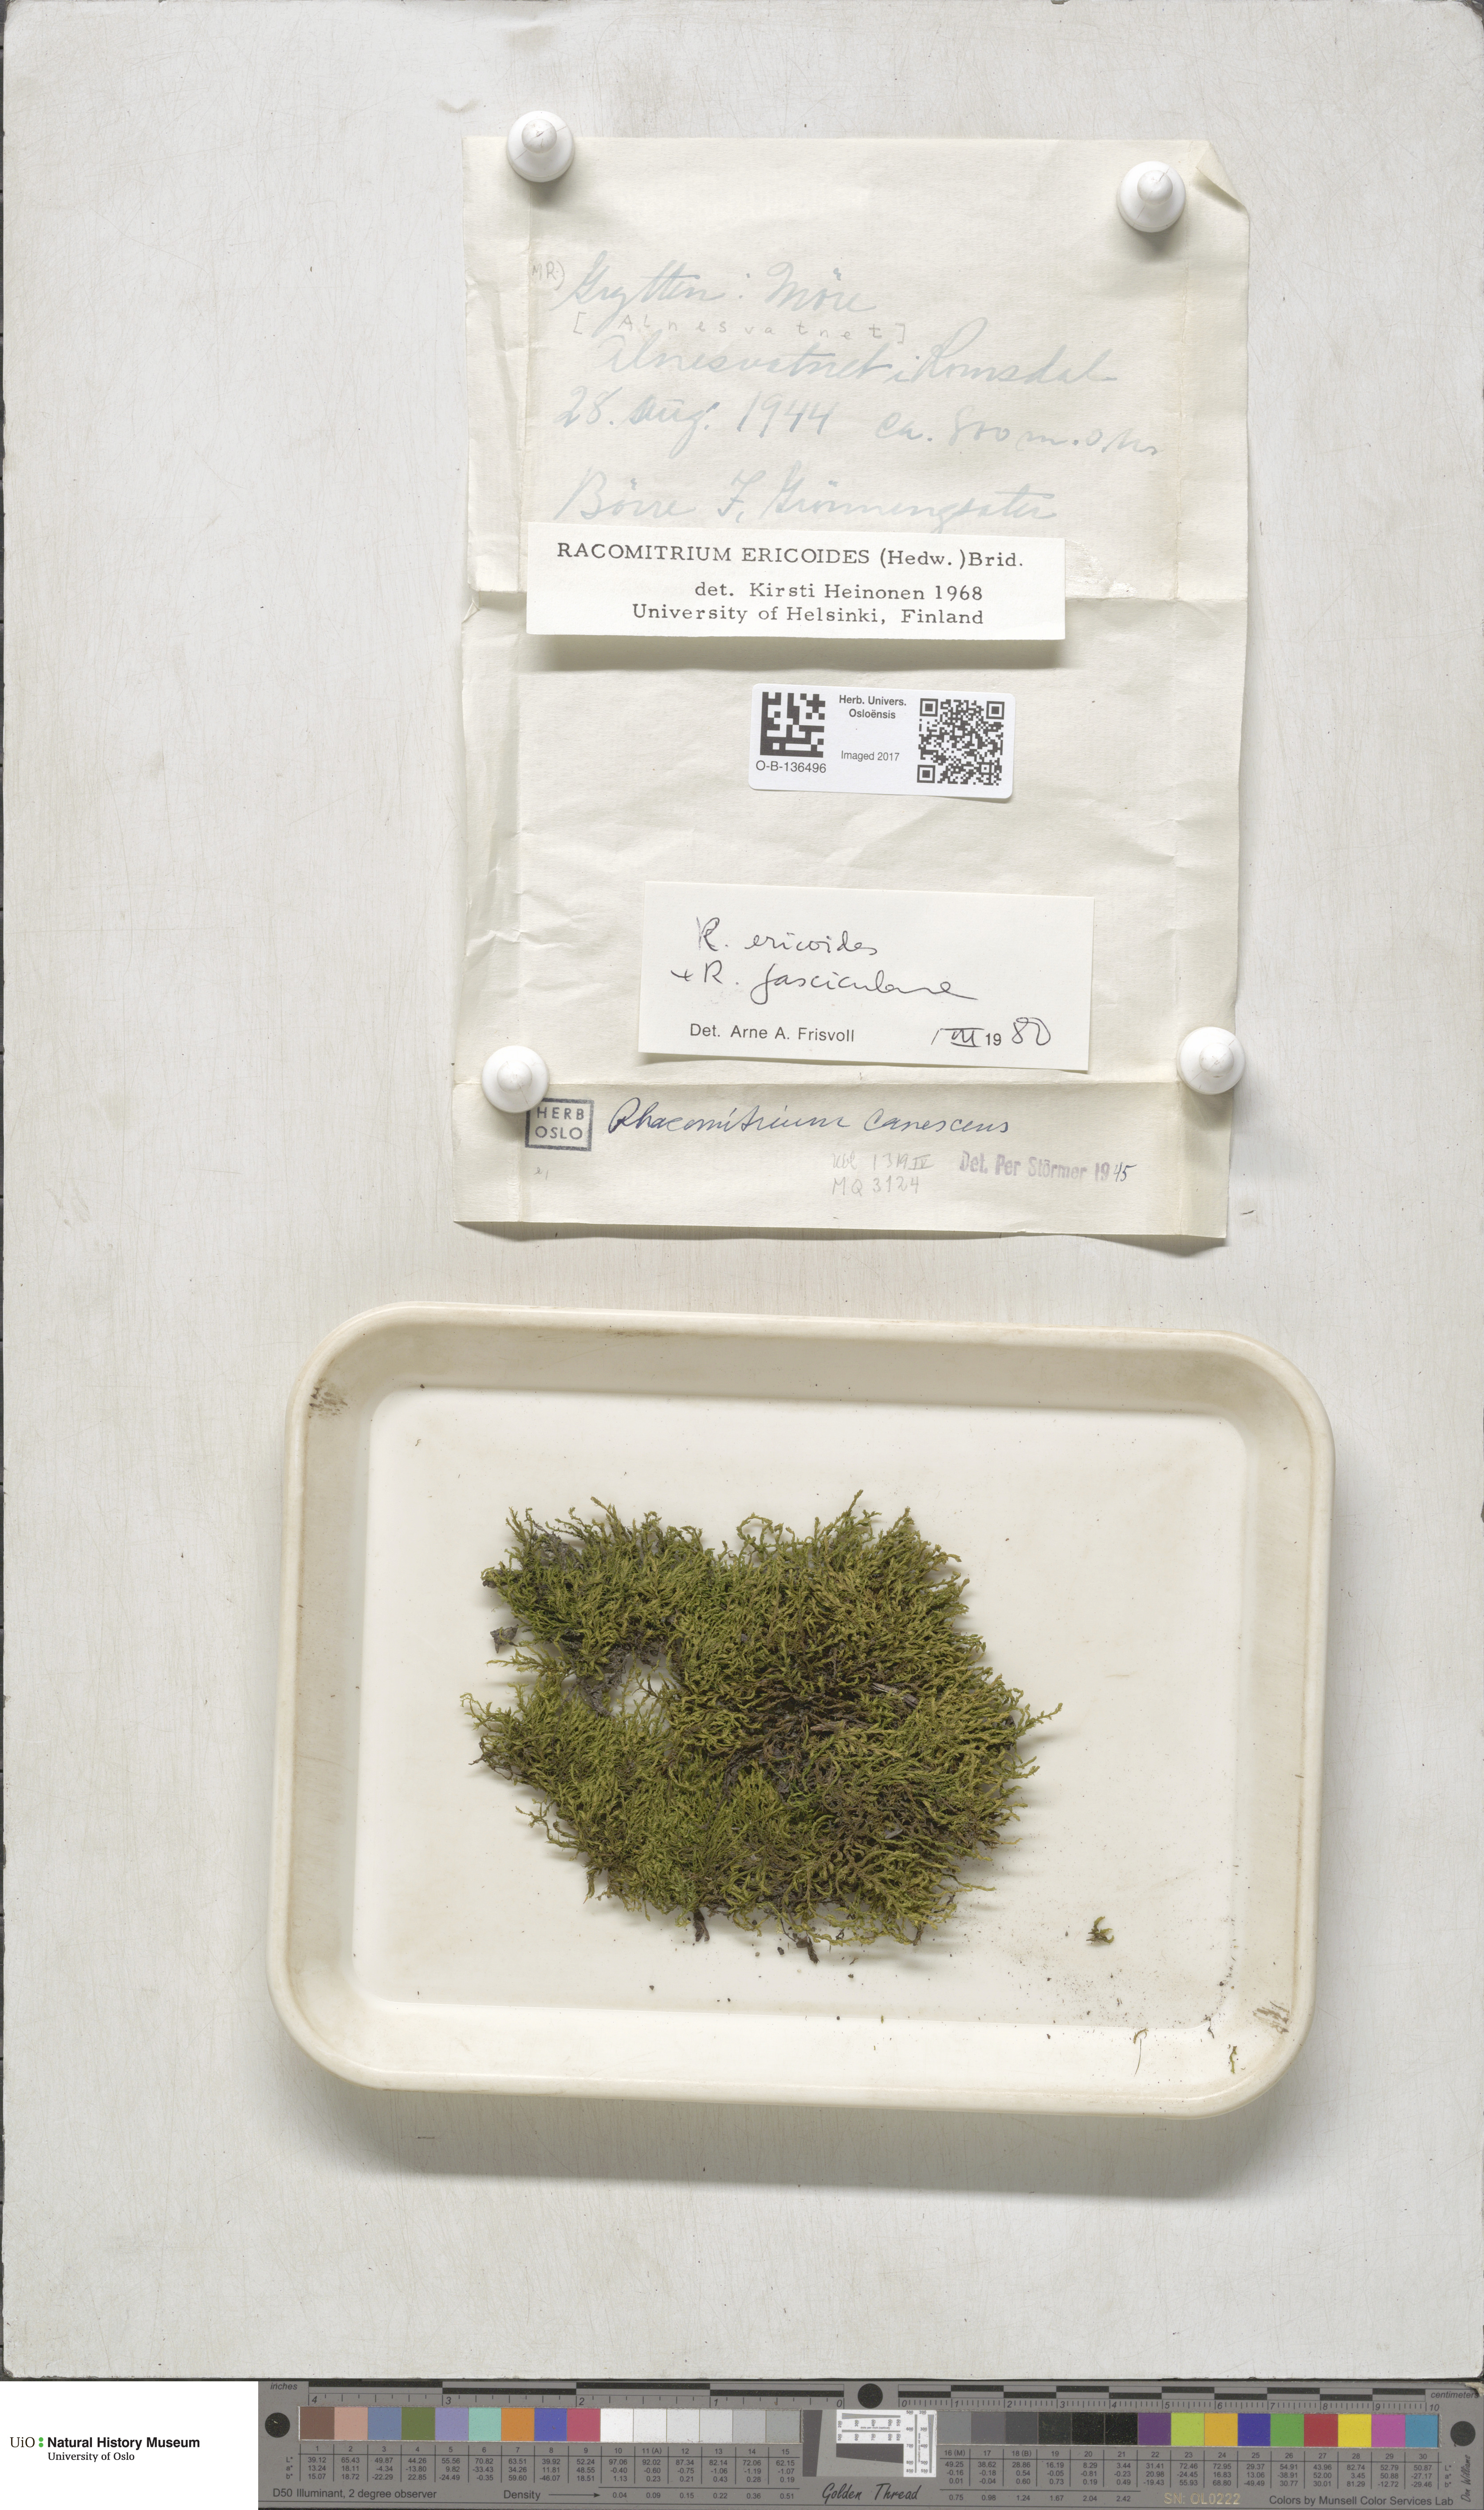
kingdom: Plantae
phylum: Bryophyta
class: Bryopsida
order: Grimmiales
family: Grimmiaceae
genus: Niphotrichum
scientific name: Niphotrichum ericoides
